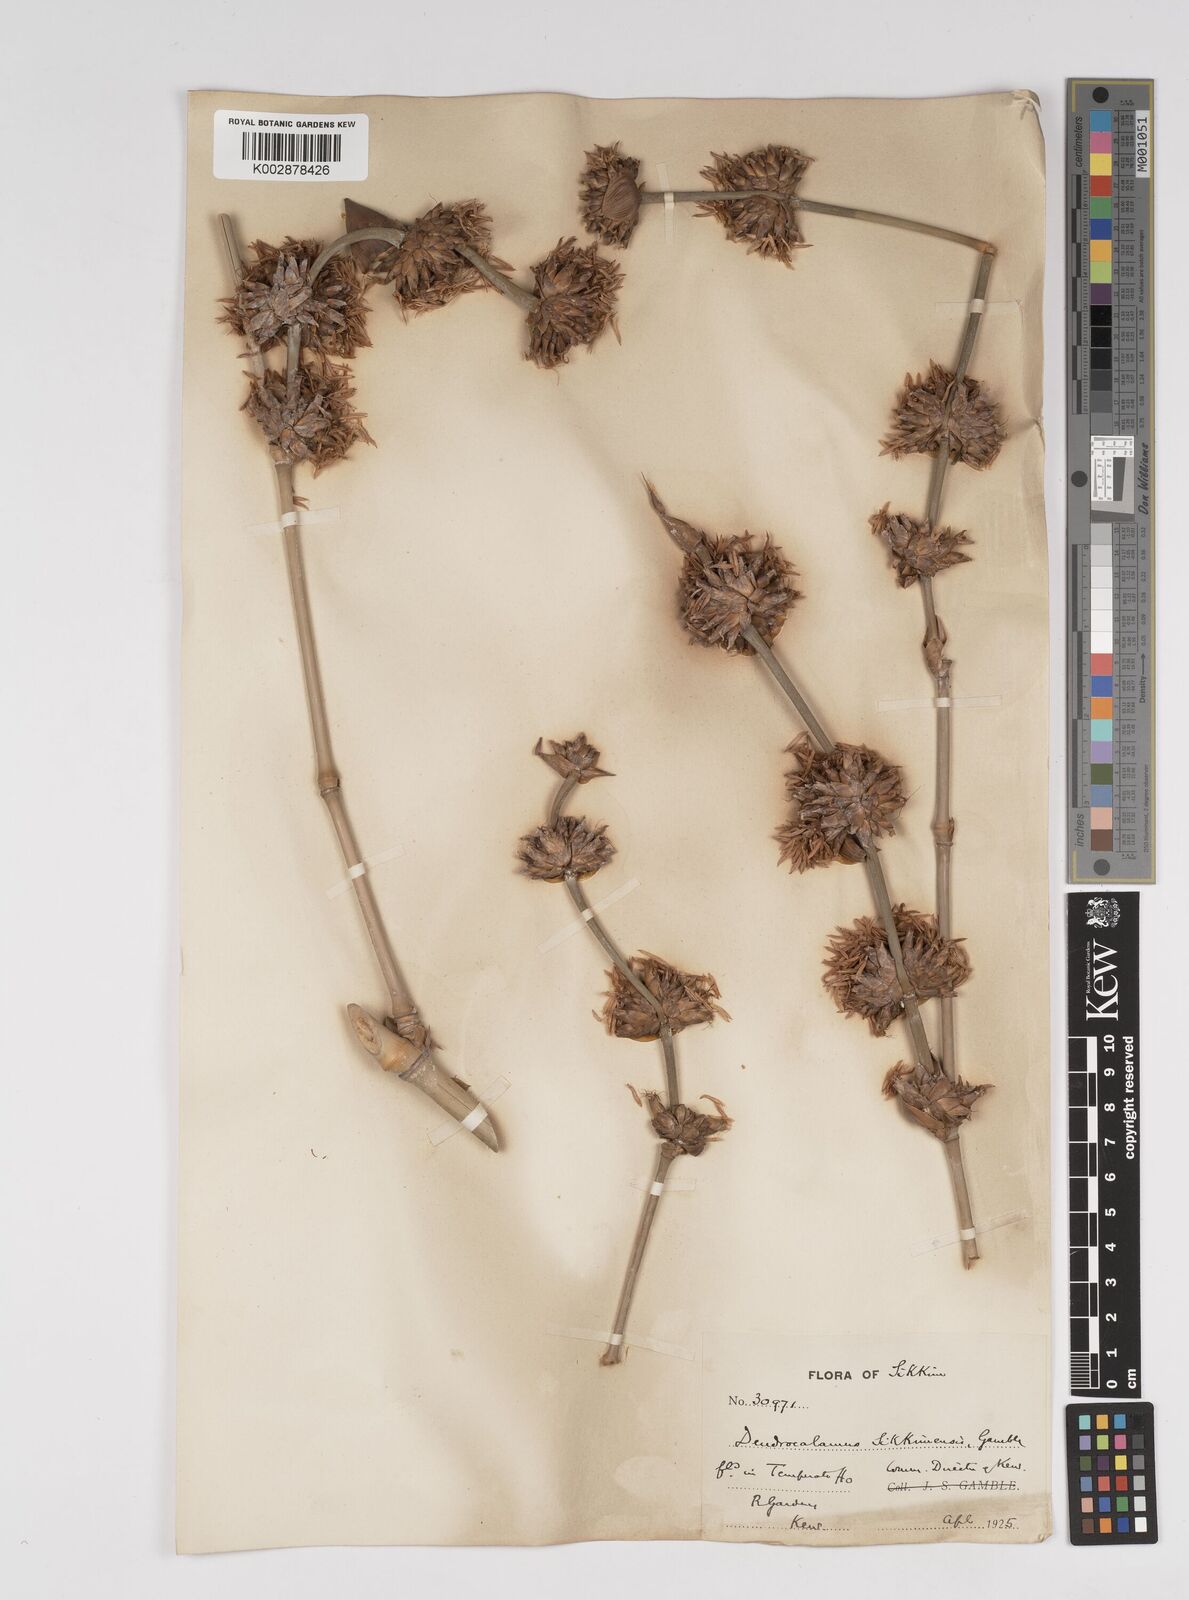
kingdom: Plantae
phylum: Tracheophyta
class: Liliopsida
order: Poales
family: Poaceae
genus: Dendrocalamus
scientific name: Dendrocalamus sikkimensis
